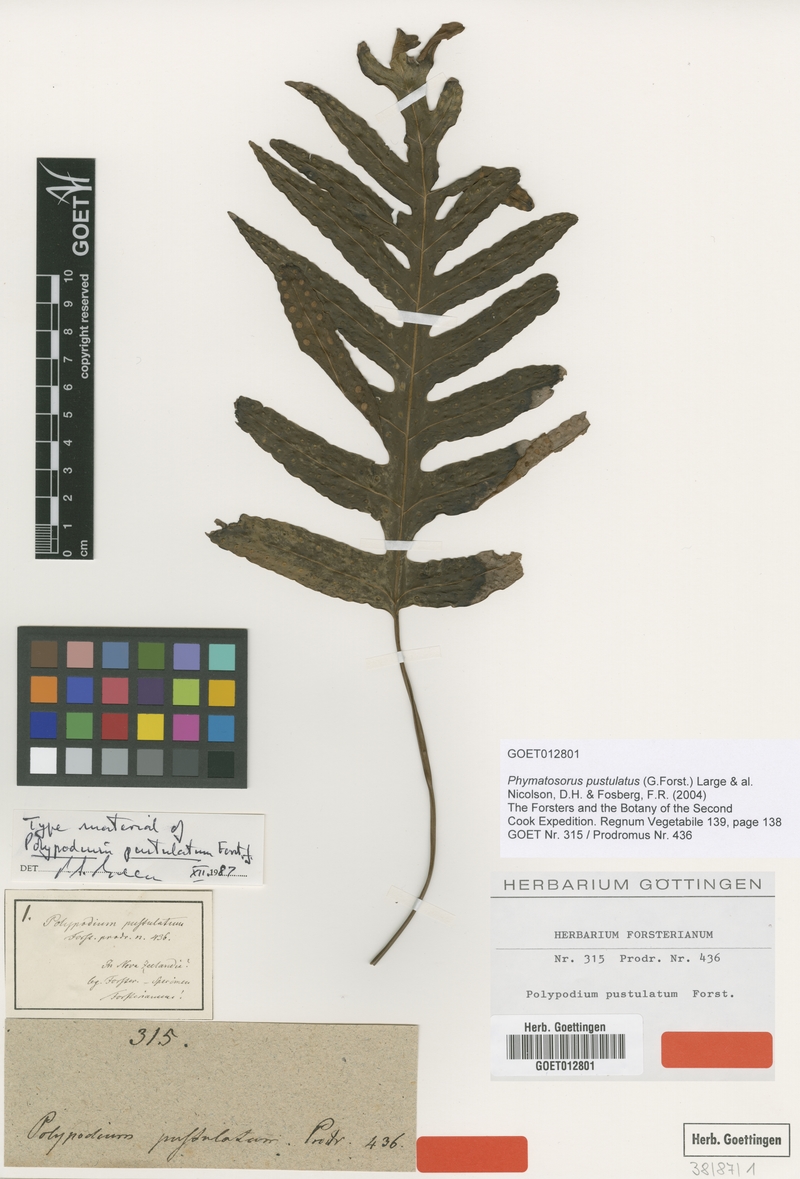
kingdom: Plantae
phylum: Tracheophyta
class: Polypodiopsida
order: Polypodiales
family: Polypodiaceae
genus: Lecanopteris
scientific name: Lecanopteris pustulata
